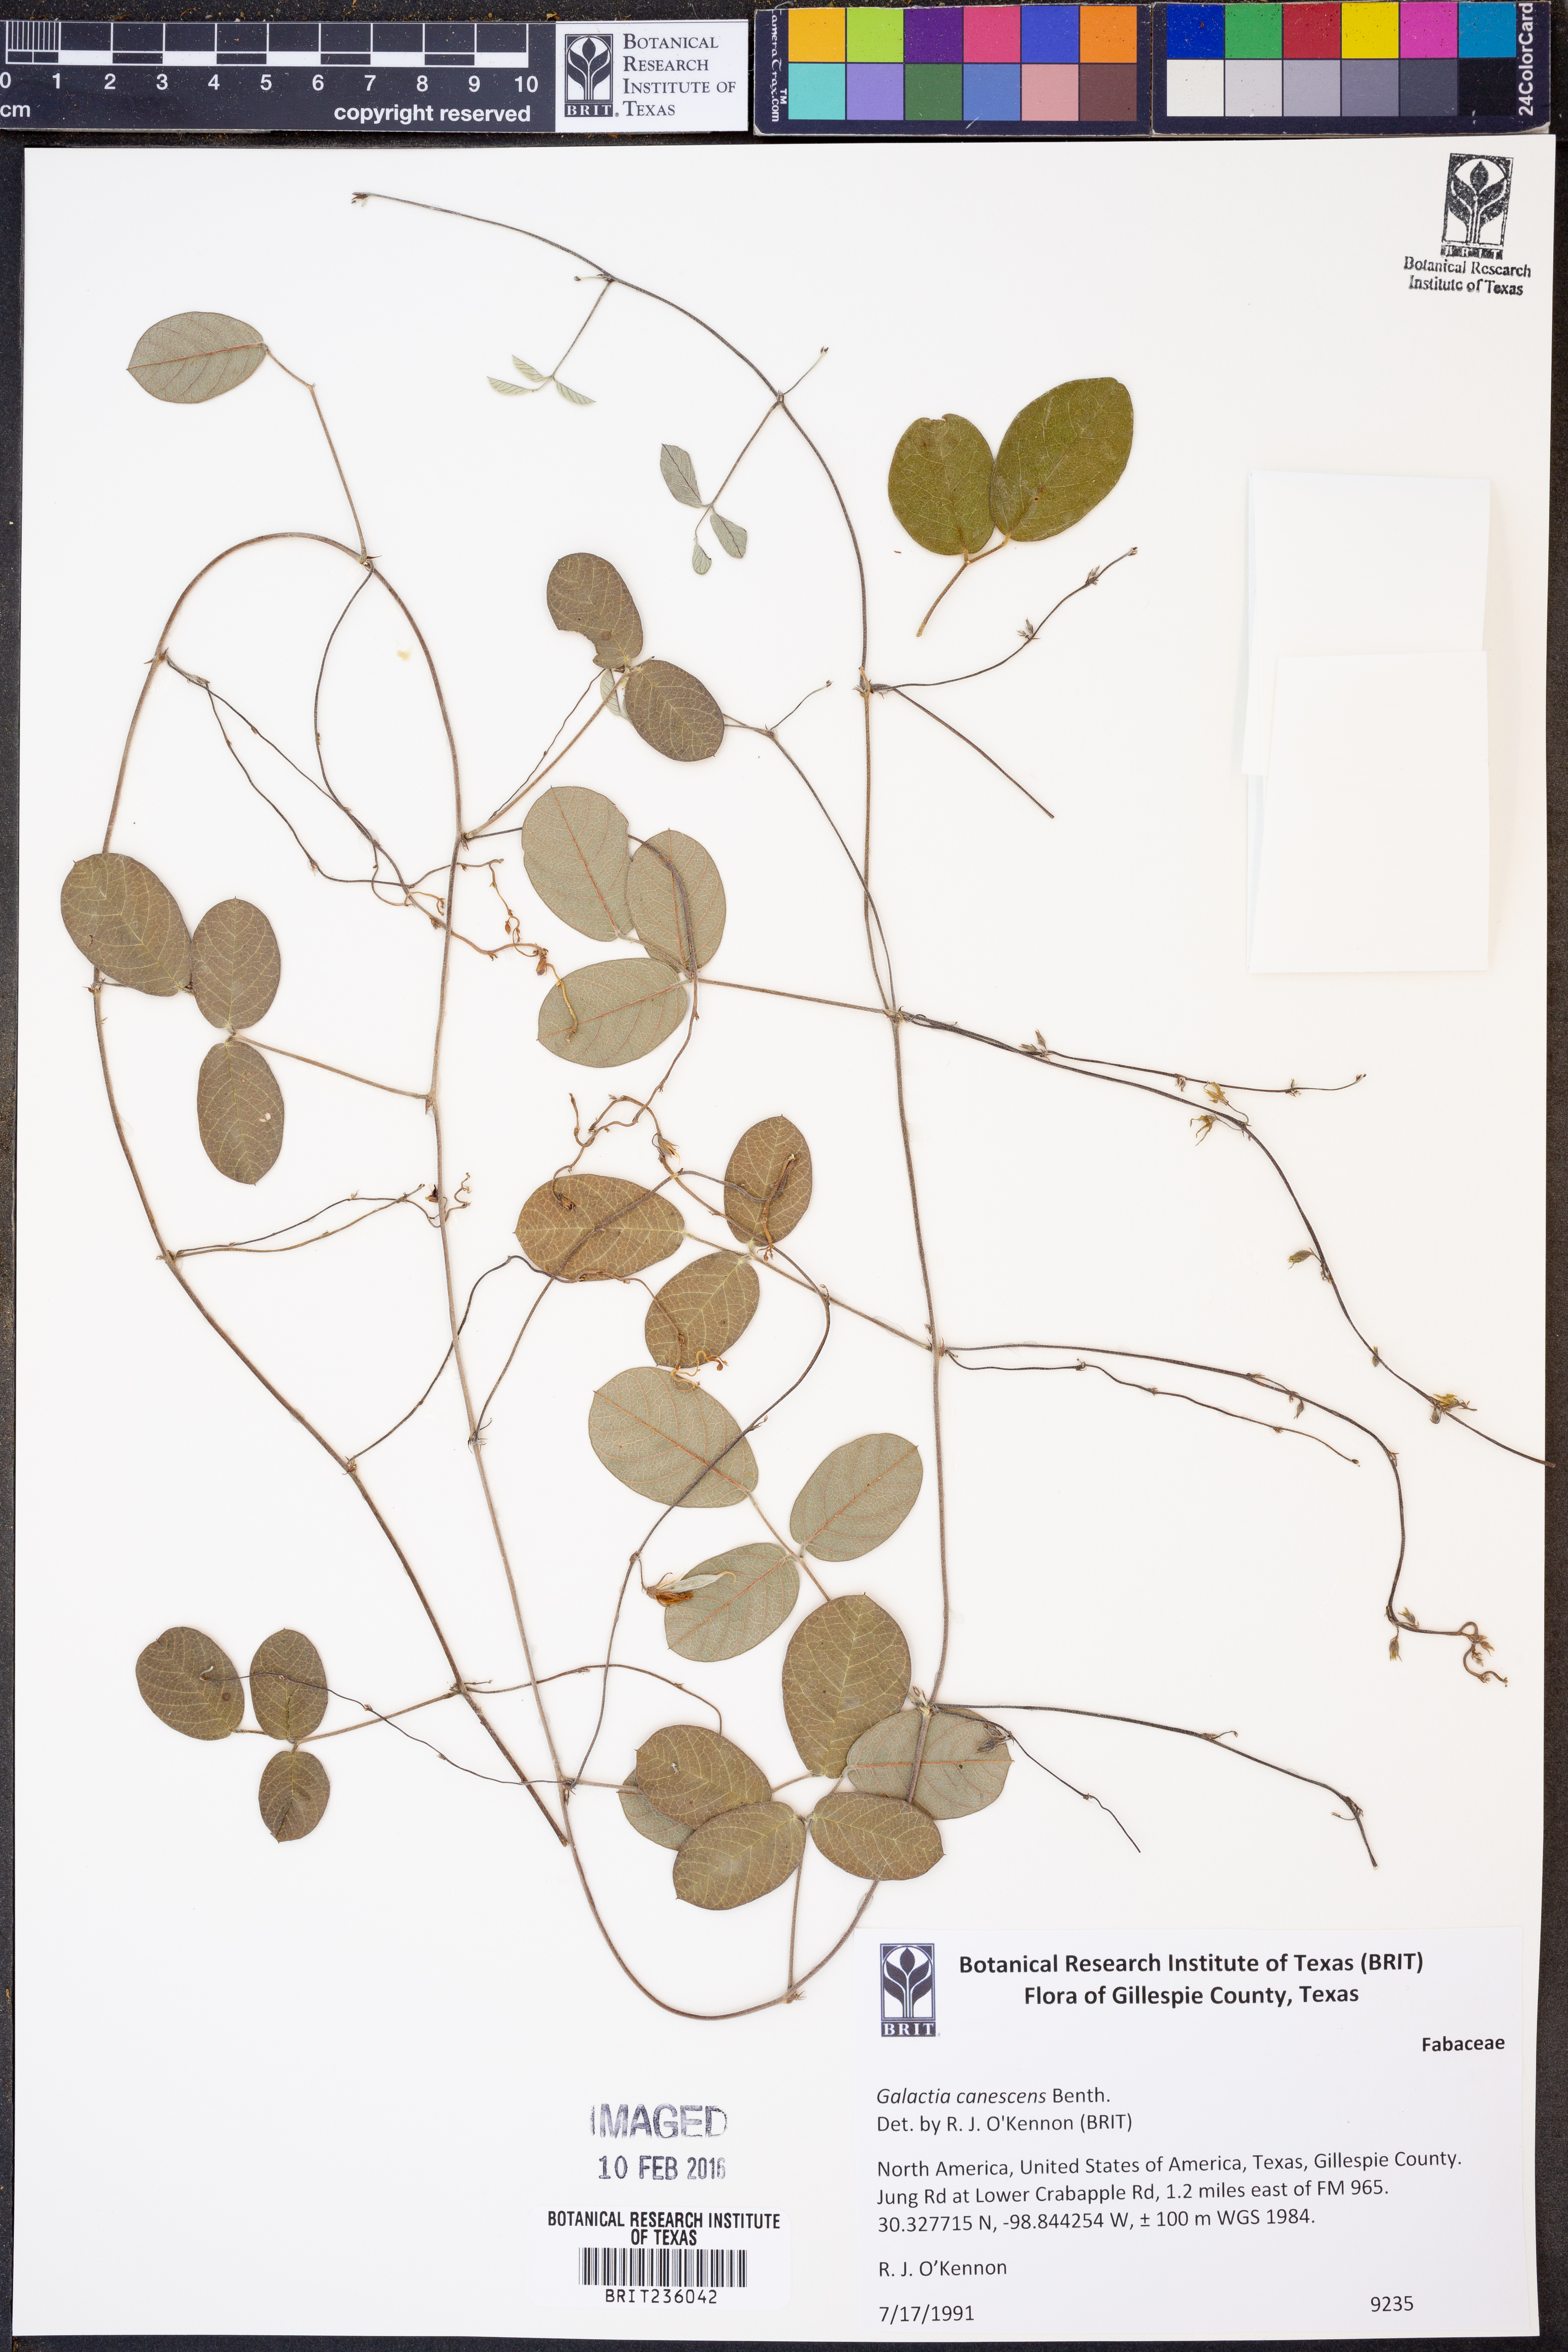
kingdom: Plantae
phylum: Tracheophyta
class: Magnoliopsida
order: Fabales
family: Fabaceae
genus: Galactia
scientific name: Galactia canescens
